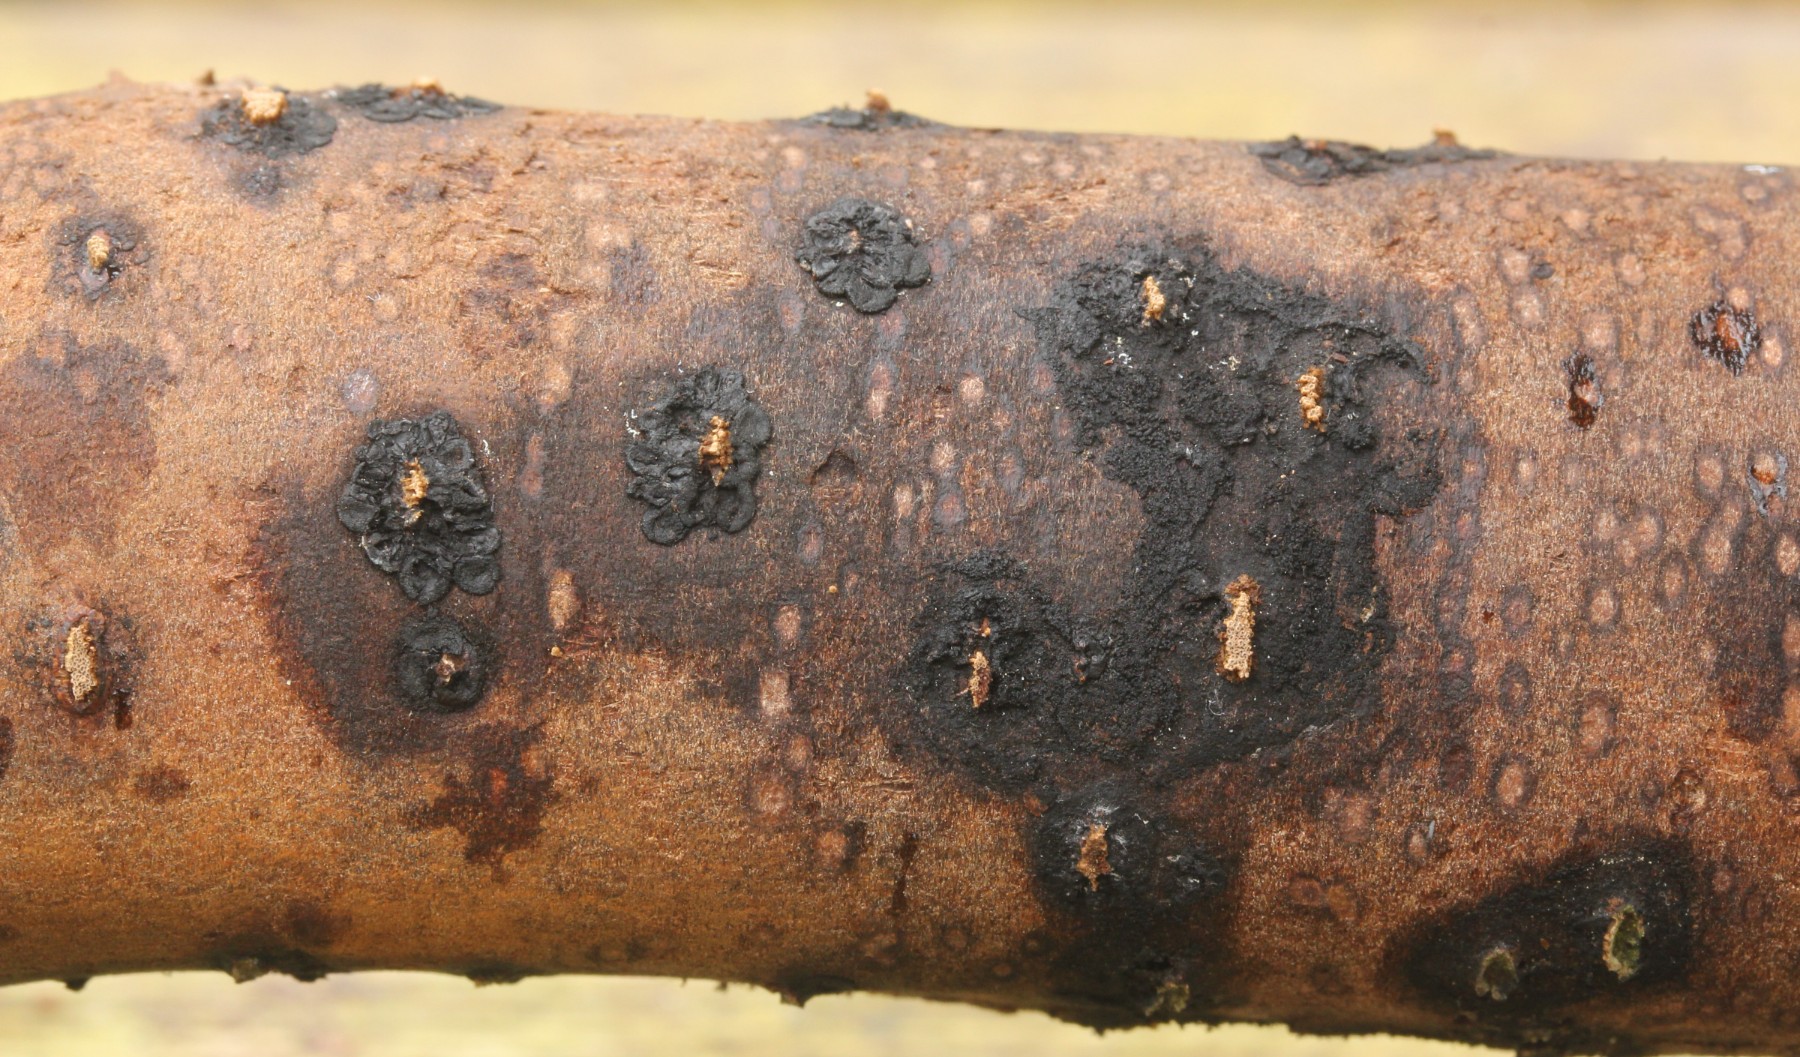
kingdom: Fungi
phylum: Ascomycota
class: Sordariomycetes
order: Calosphaeriales
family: Calosphaeriaceae
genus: Calosphaeria
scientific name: Calosphaeria
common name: slyngkerne
